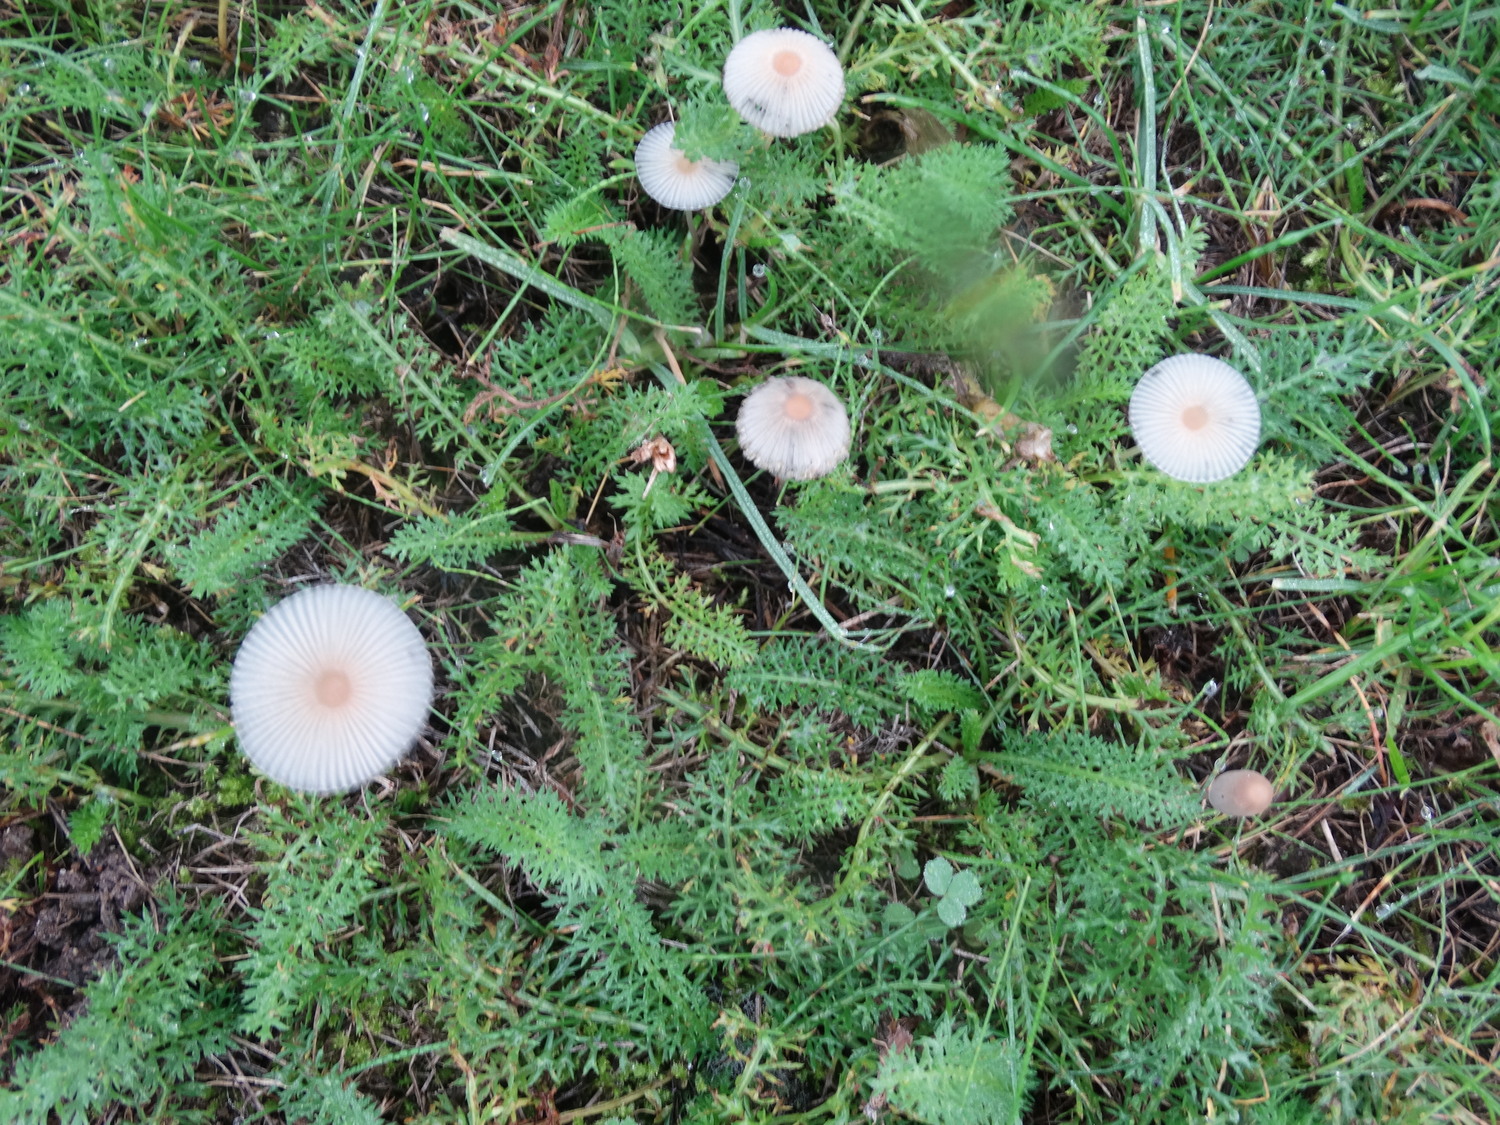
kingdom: Fungi
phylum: Basidiomycota
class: Agaricomycetes
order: Agaricales
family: Psathyrellaceae
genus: Parasola
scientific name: Parasola
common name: hjulhat
